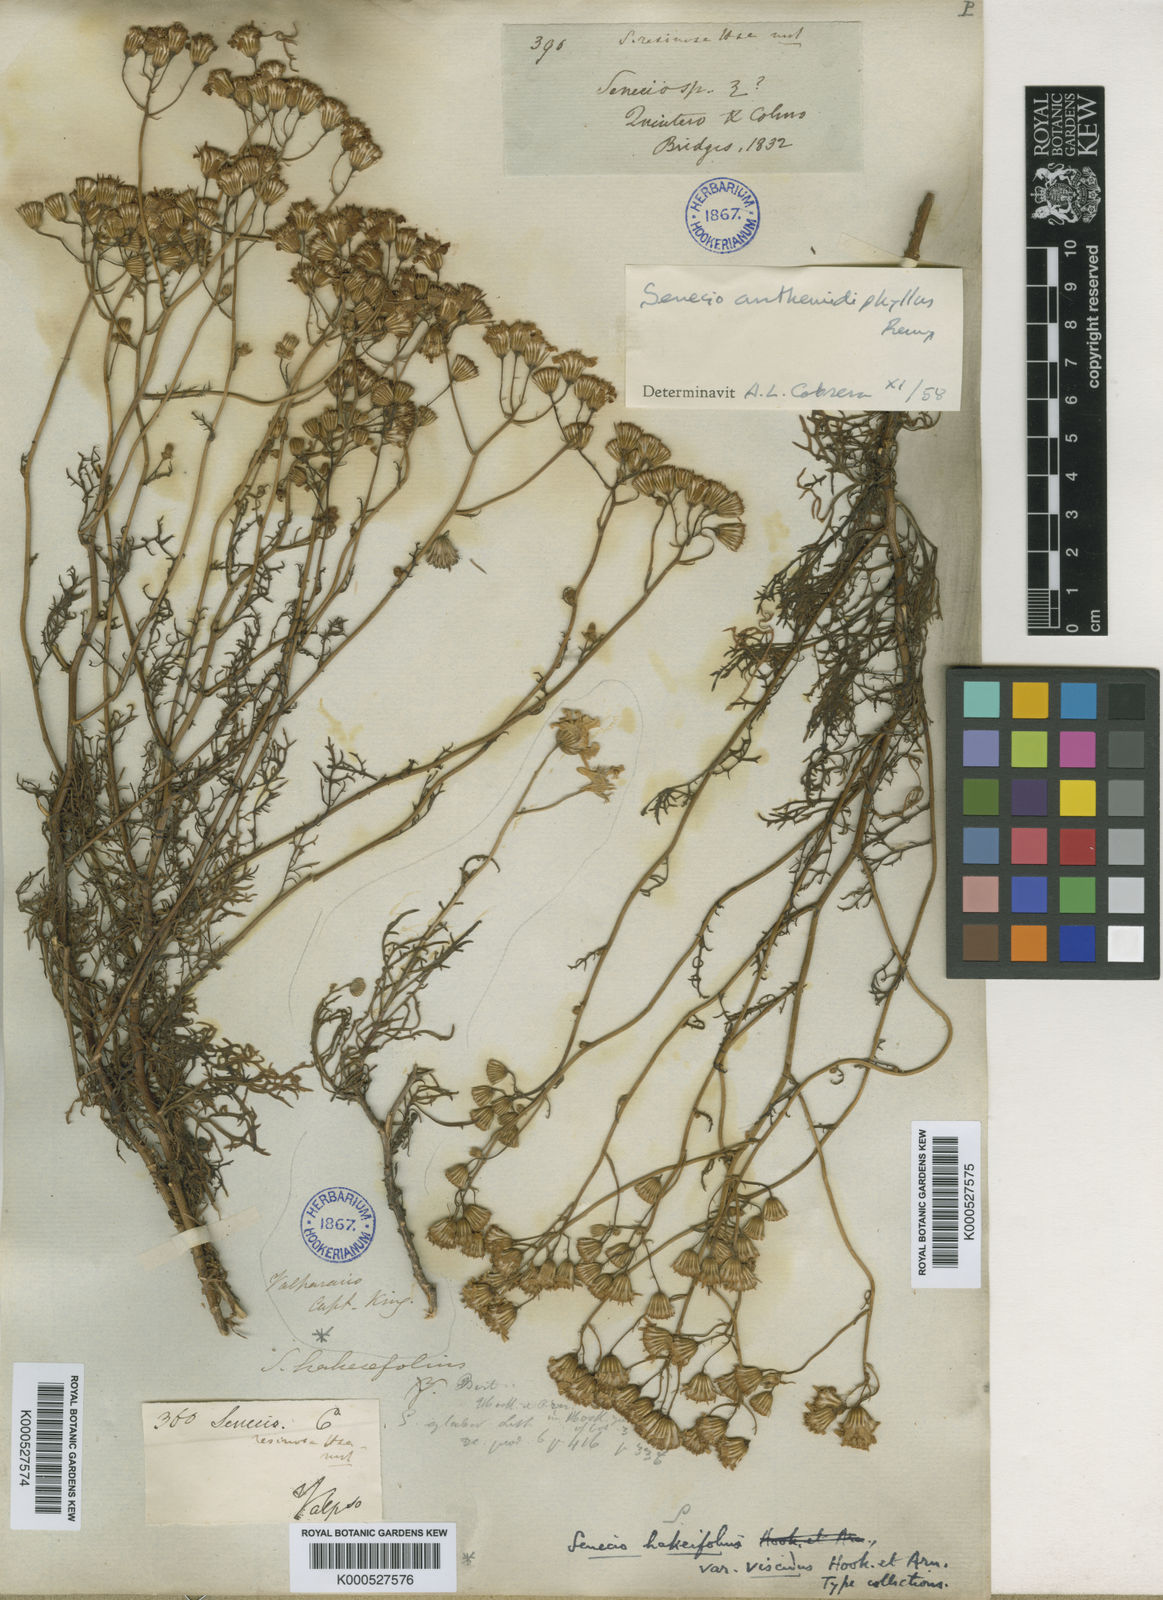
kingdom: Plantae
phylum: Tracheophyta
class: Magnoliopsida
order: Asterales
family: Asteraceae
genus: Senecio
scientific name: Senecio hakeifolius
